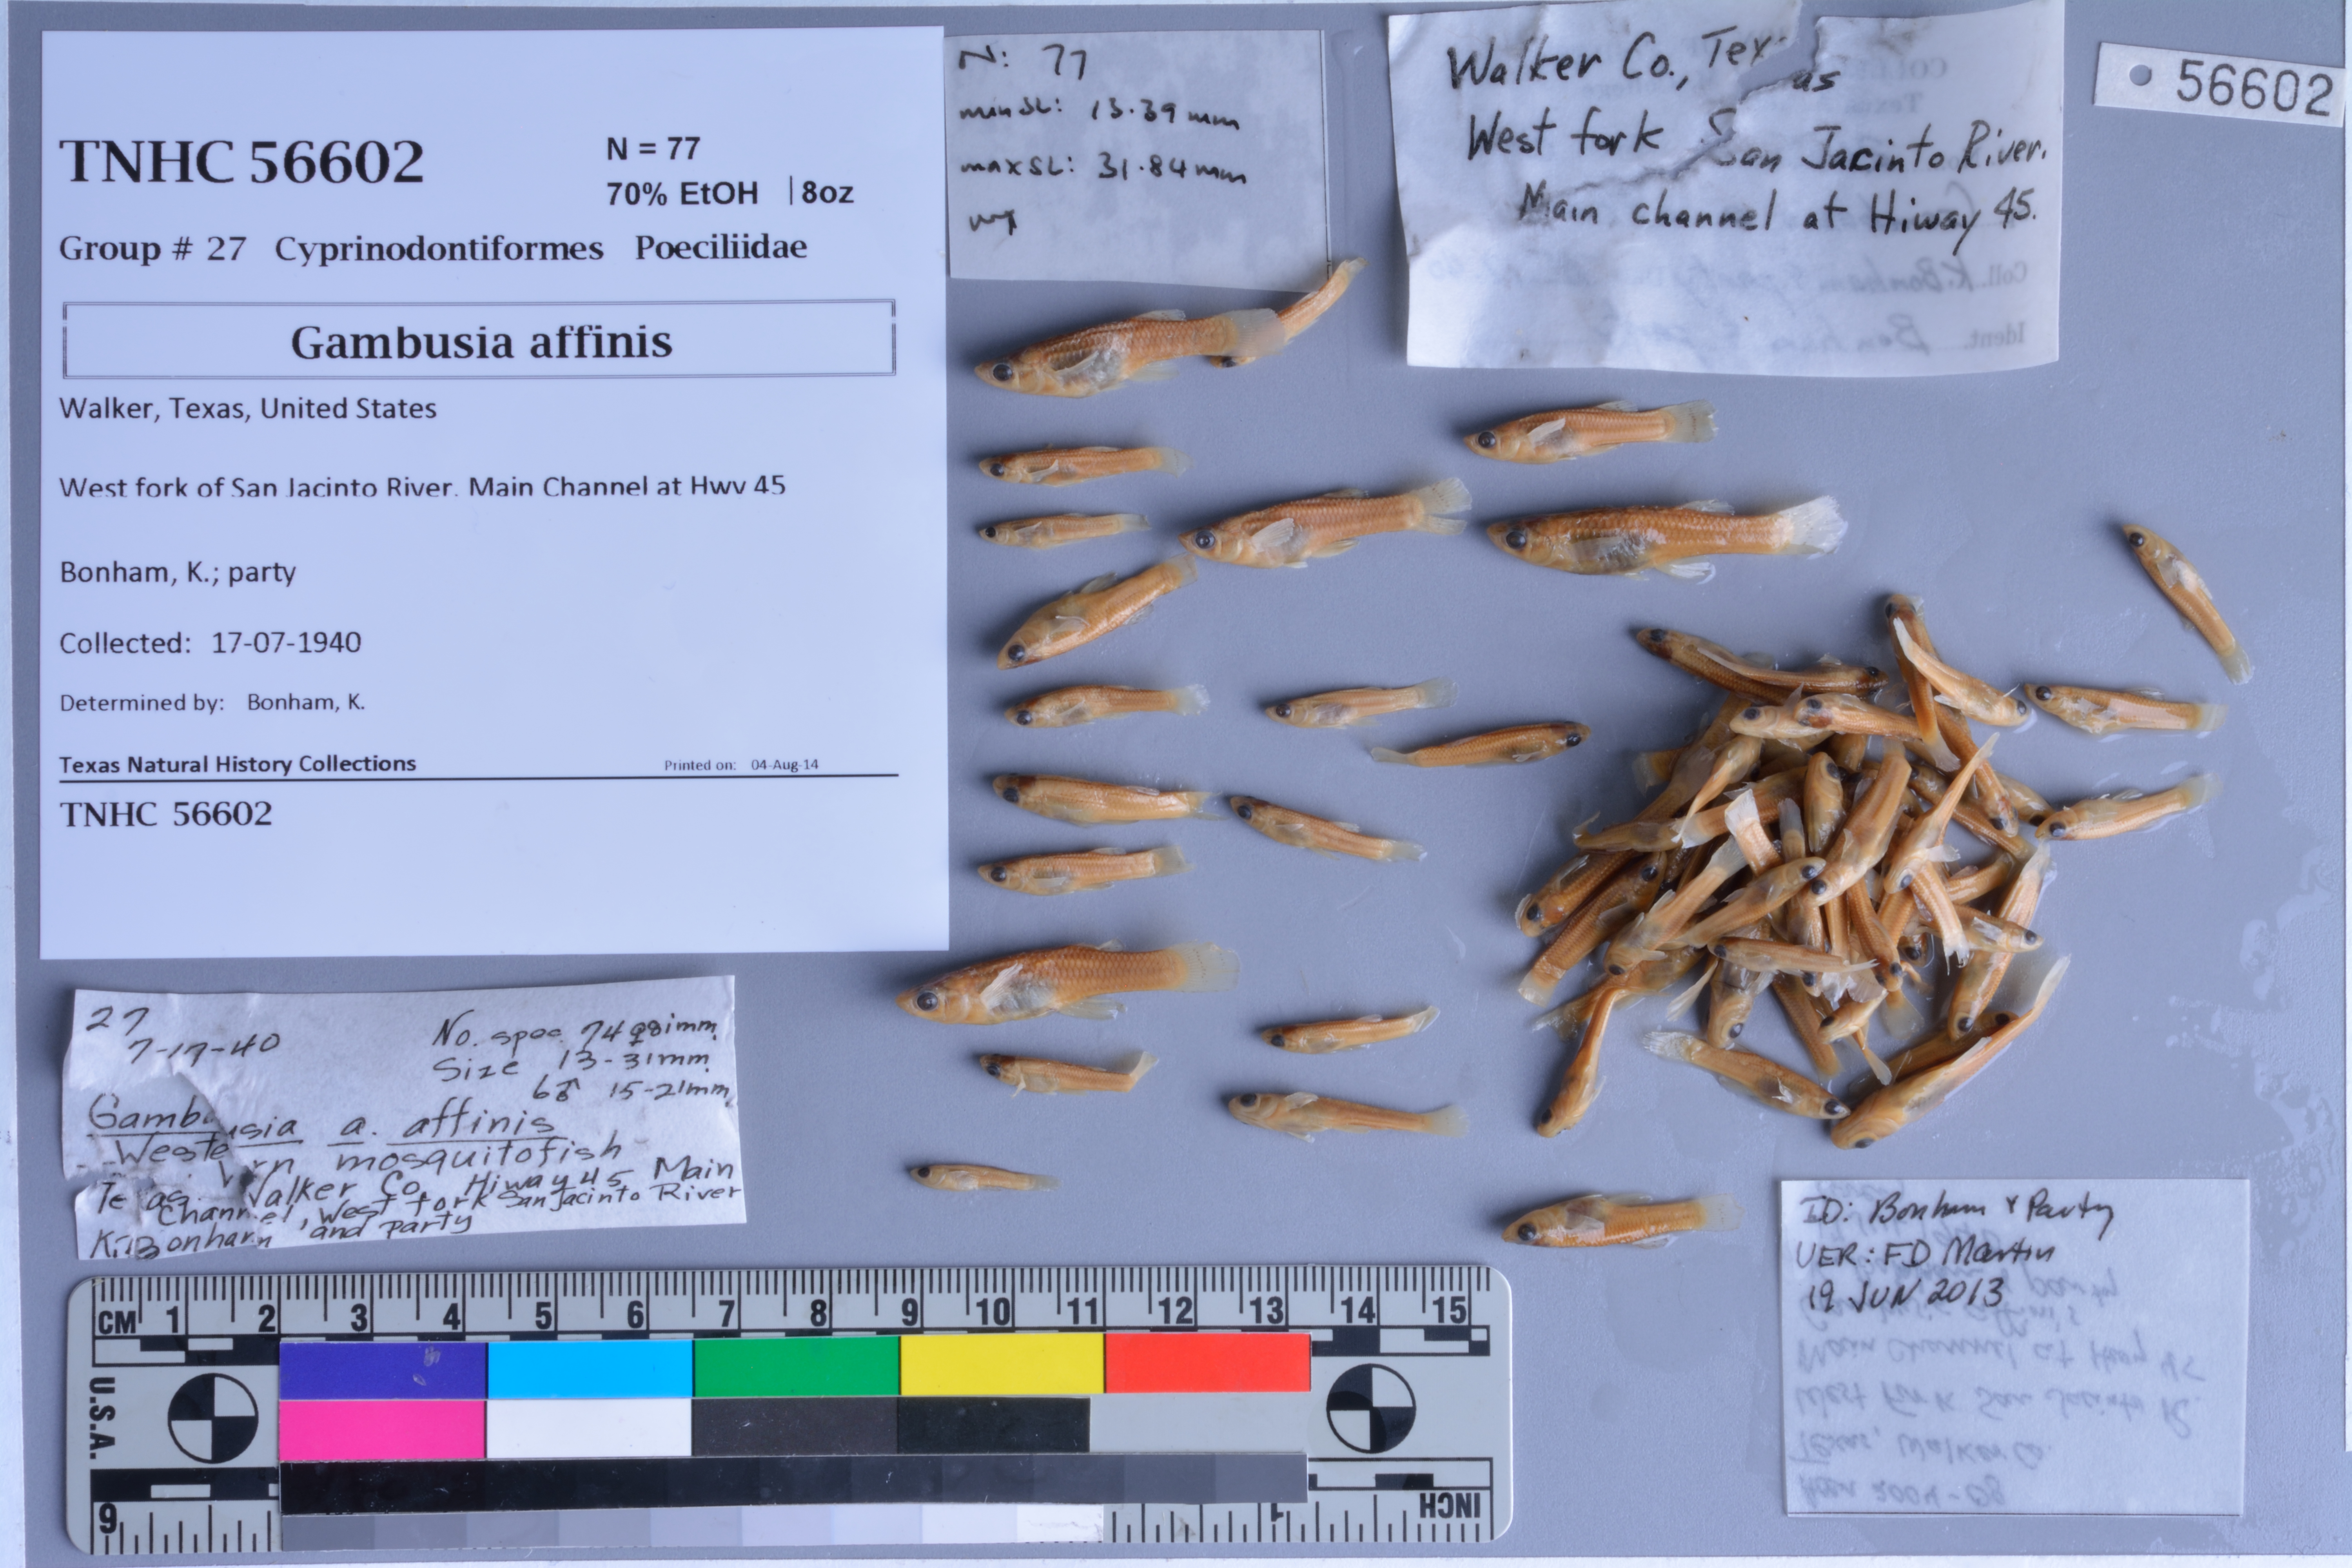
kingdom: Animalia
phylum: Chordata
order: Cyprinodontiformes
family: Poeciliidae
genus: Gambusia
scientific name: Gambusia affinis
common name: Mosquitofish
